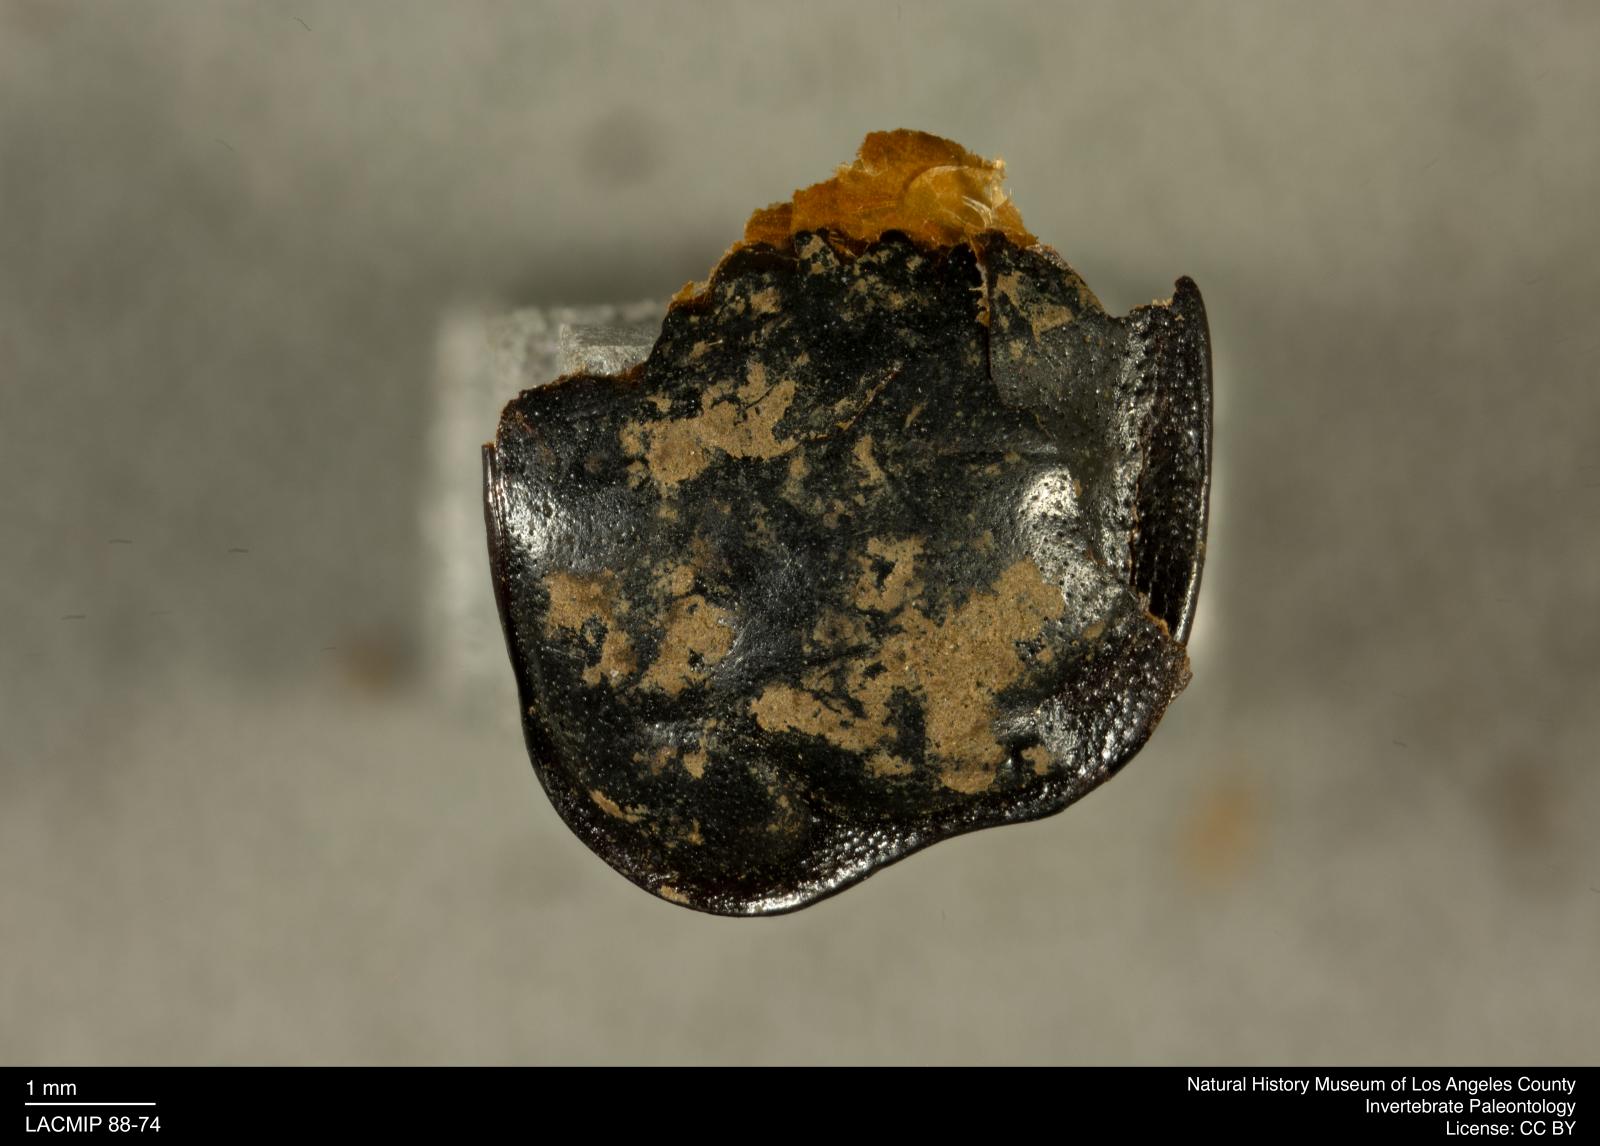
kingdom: Animalia
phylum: Arthropoda
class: Insecta
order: Coleoptera
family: Staphylinidae
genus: Nicrophorus
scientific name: Nicrophorus marginatus
